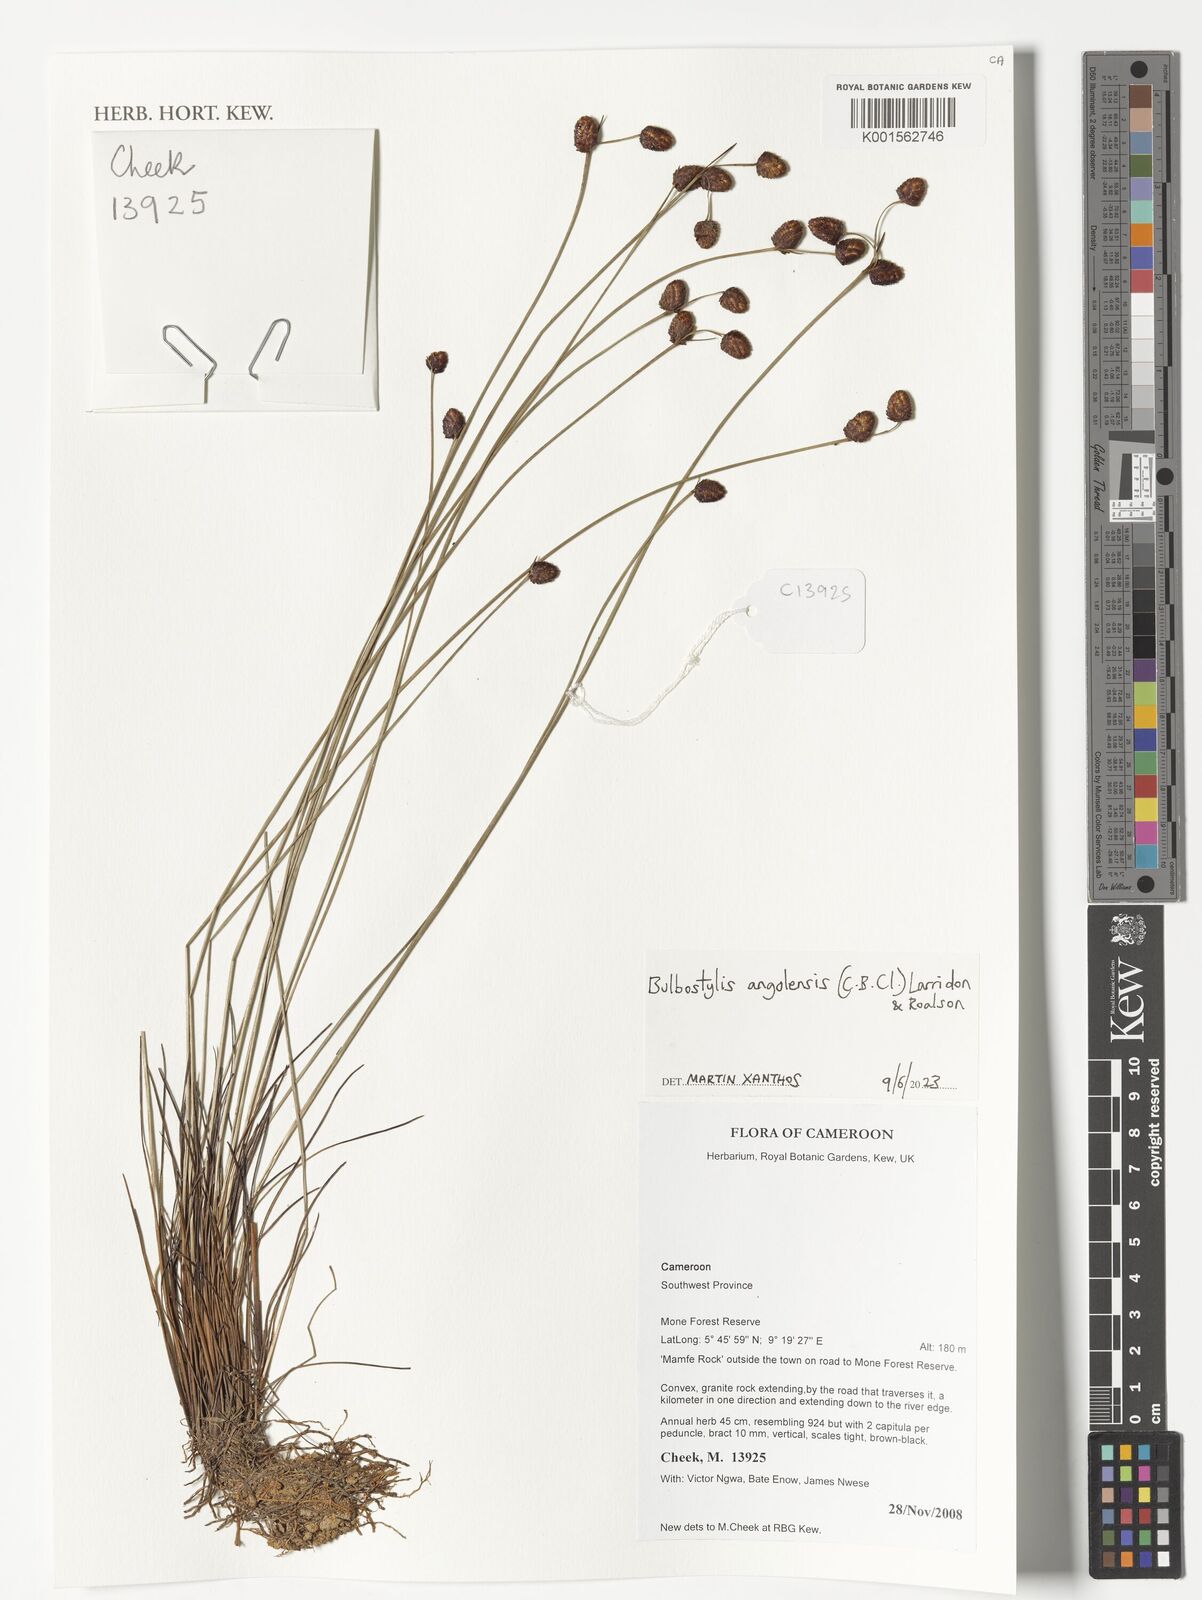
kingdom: Plantae
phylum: Tracheophyta
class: Liliopsida
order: Poales
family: Cyperaceae
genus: Bulbostylis
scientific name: Bulbostylis angolensis
